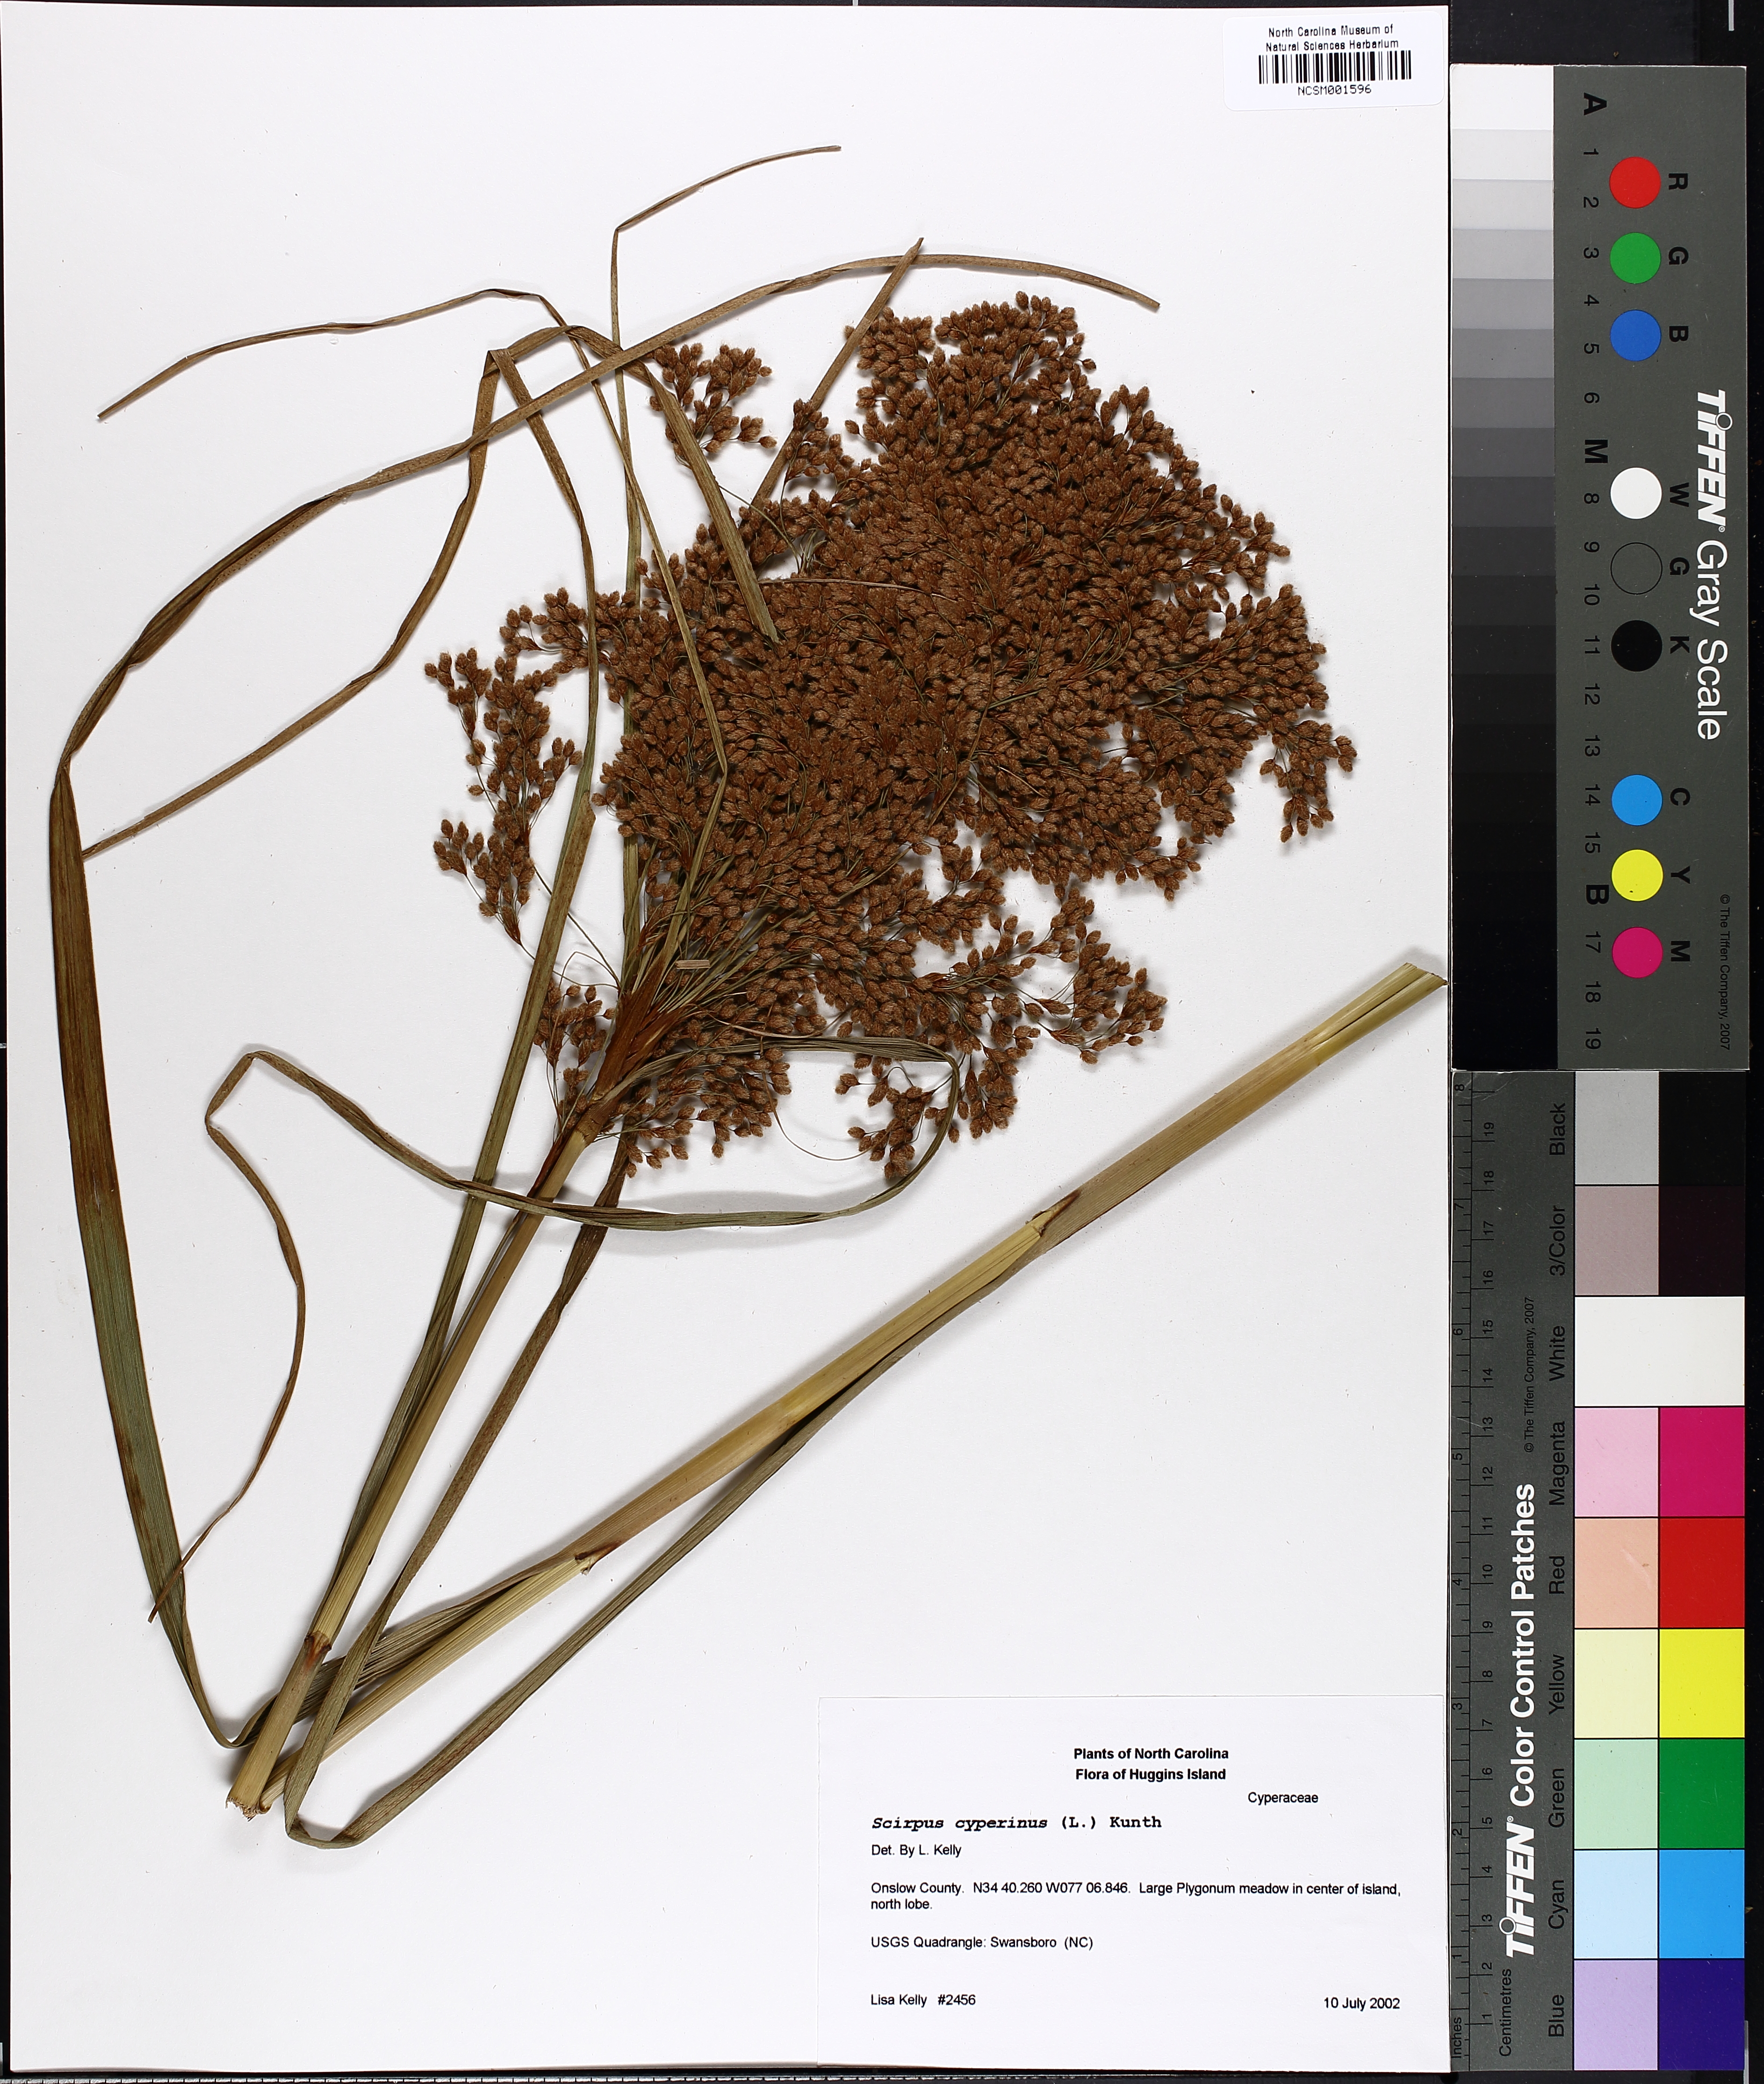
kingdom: Plantae
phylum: Tracheophyta
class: Liliopsida
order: Poales
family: Cyperaceae
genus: Scirpus
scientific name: Scirpus cyperinus
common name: Black-sheathed bulrush
